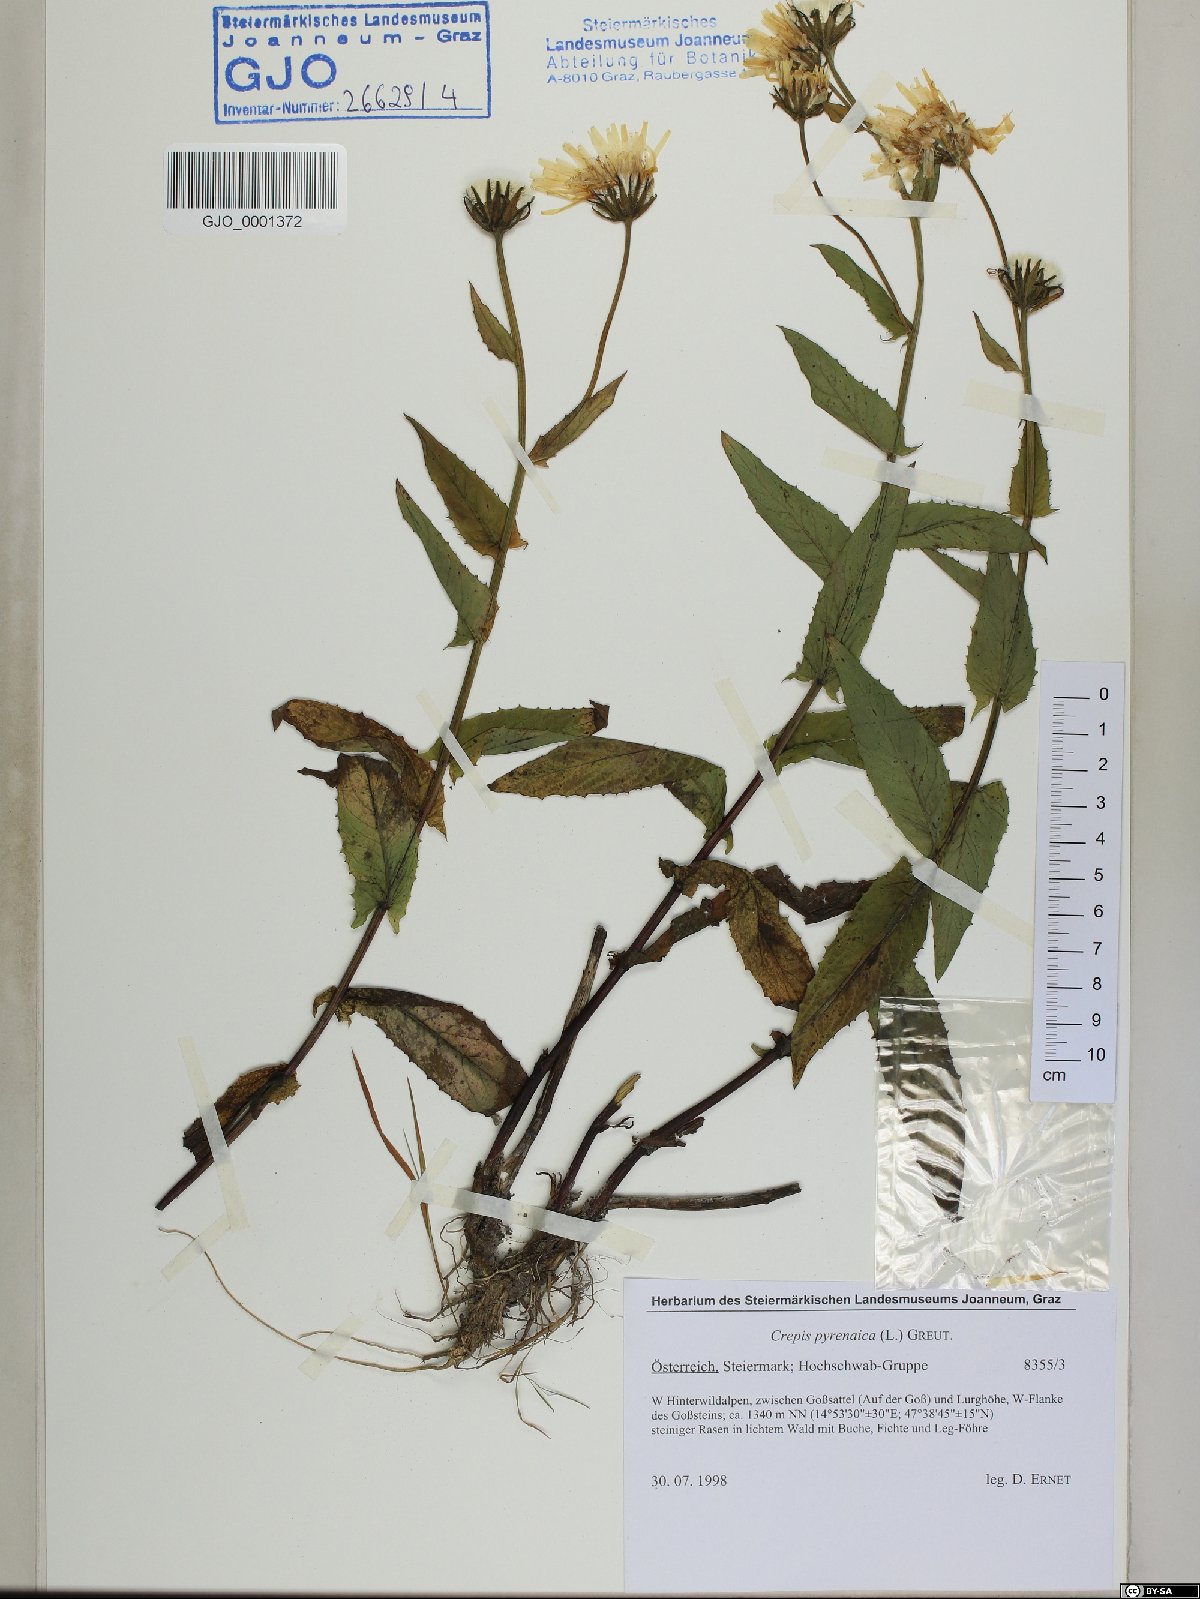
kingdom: Plantae
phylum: Tracheophyta
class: Magnoliopsida
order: Asterales
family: Asteraceae
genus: Crepis
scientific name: Crepis pyrenaica
